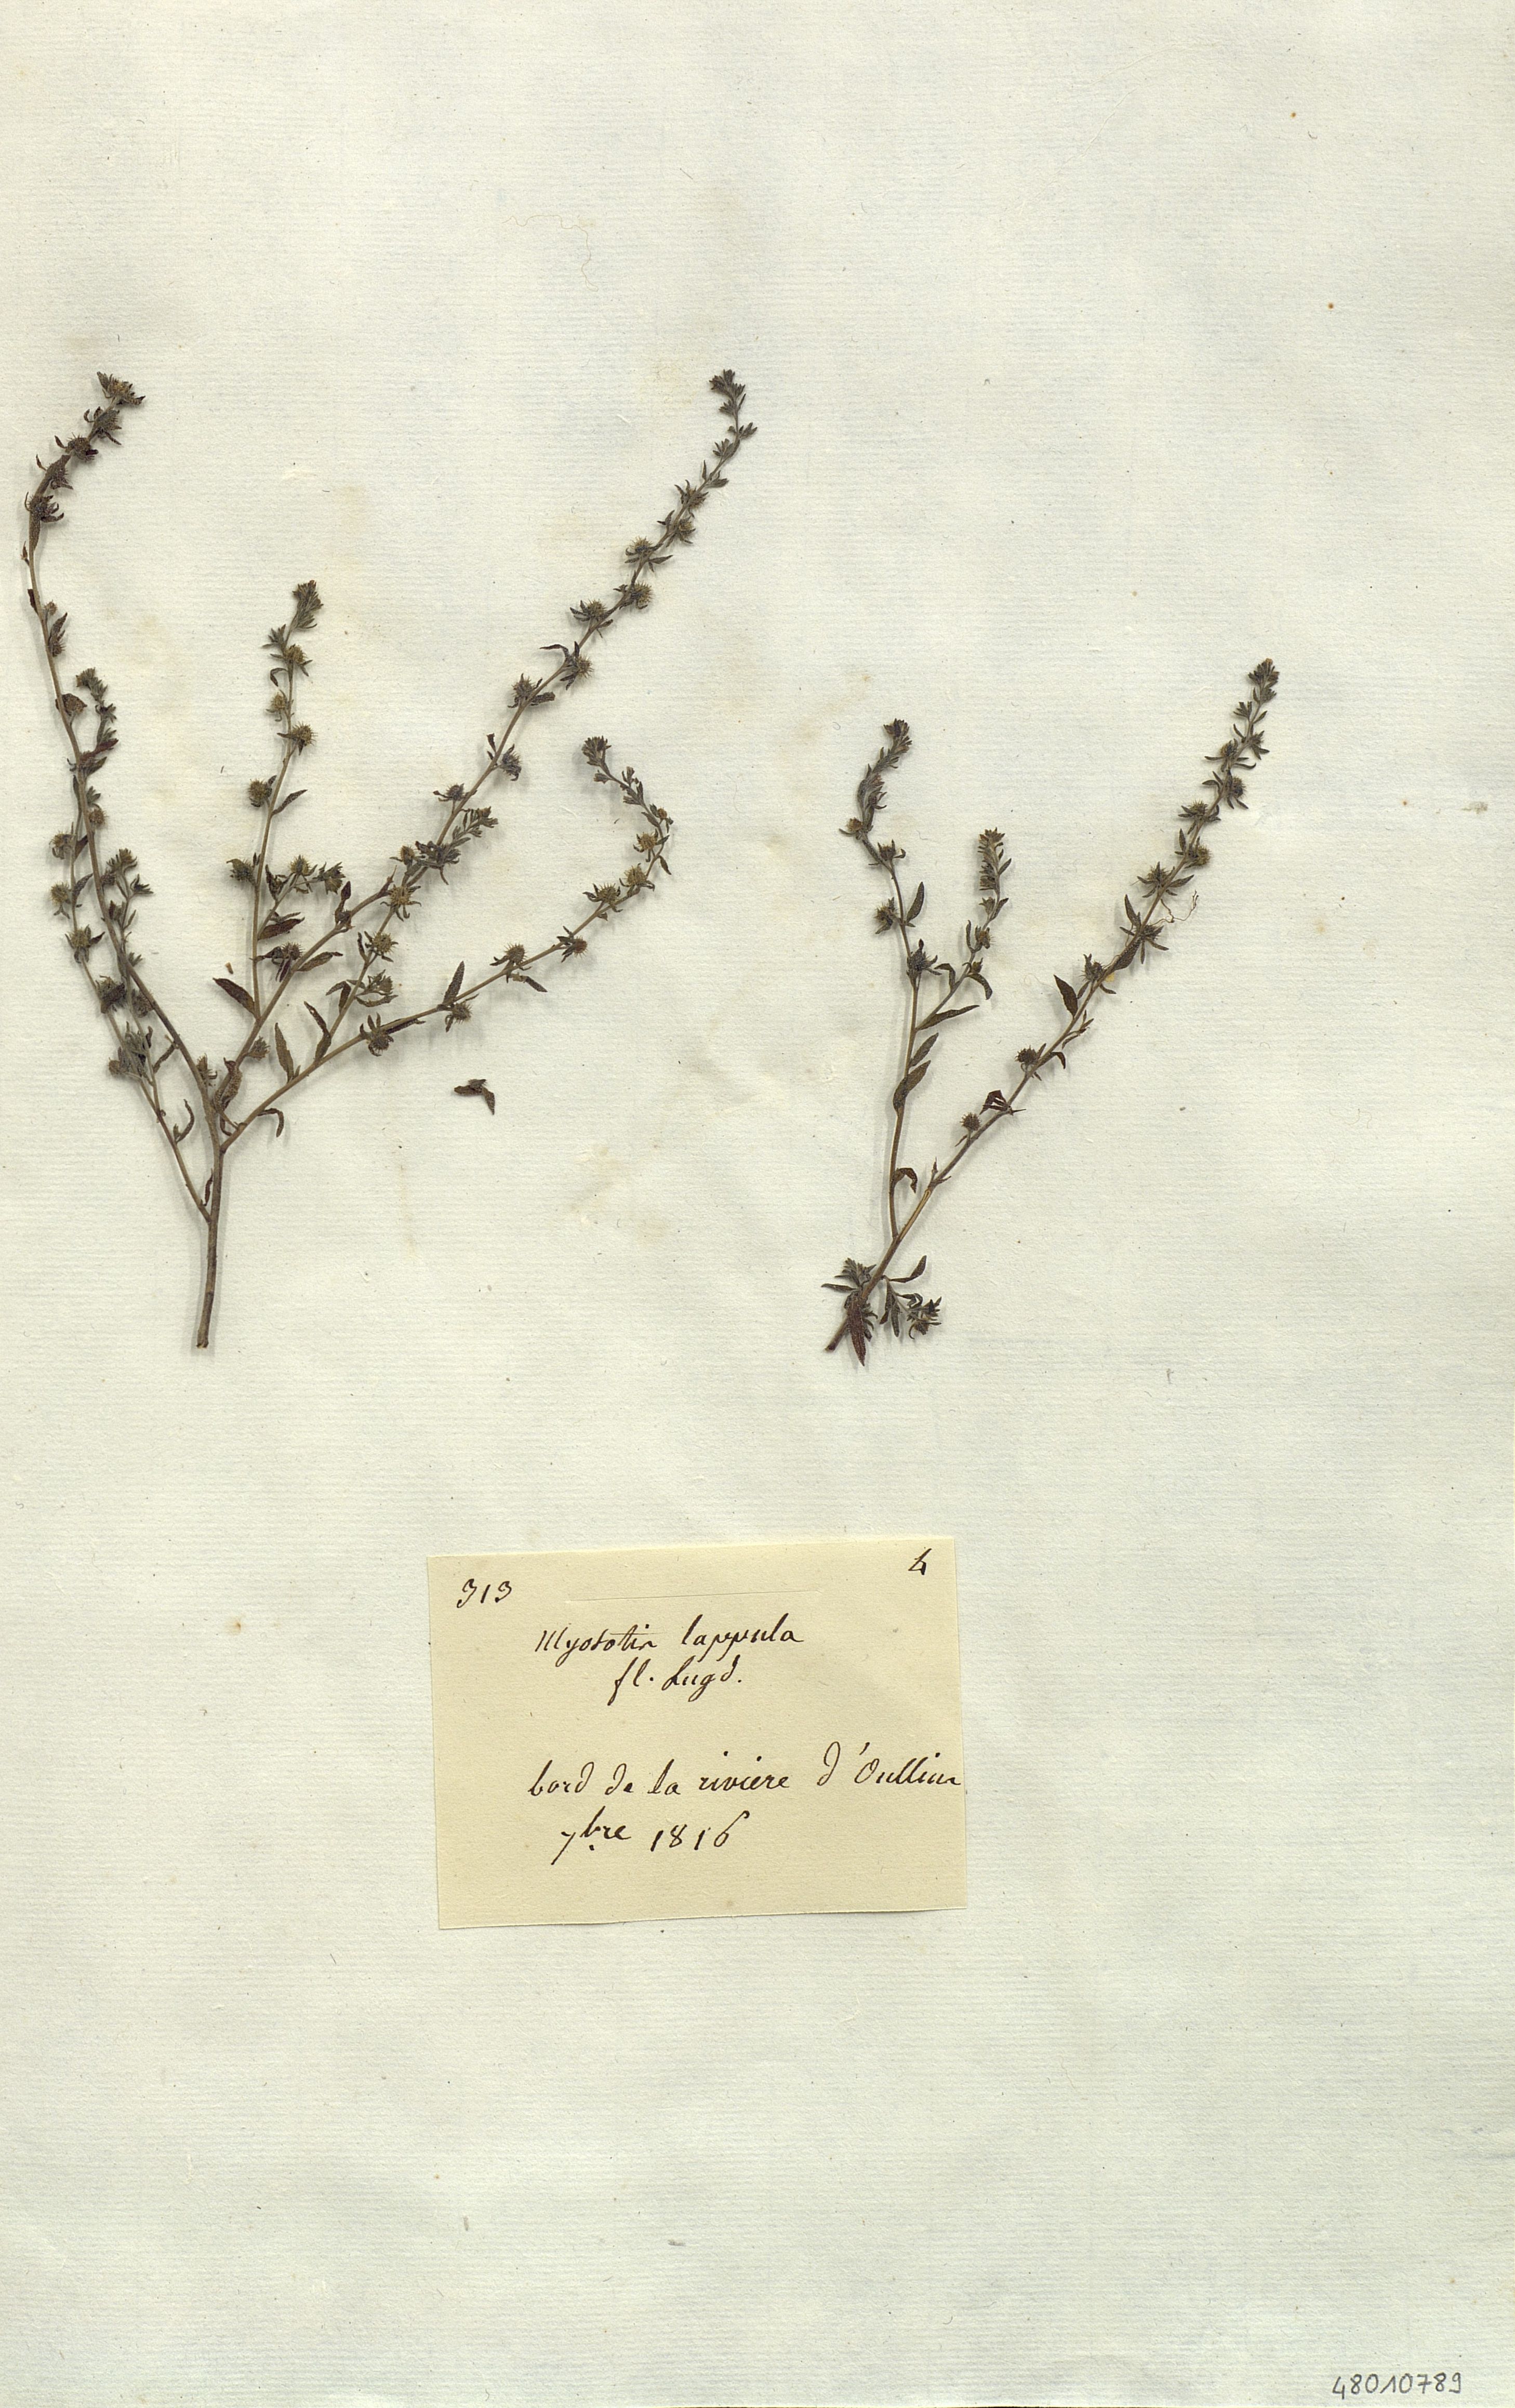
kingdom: Plantae
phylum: Tracheophyta
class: Magnoliopsida
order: Boraginales
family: Boraginaceae
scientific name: Boraginaceae
